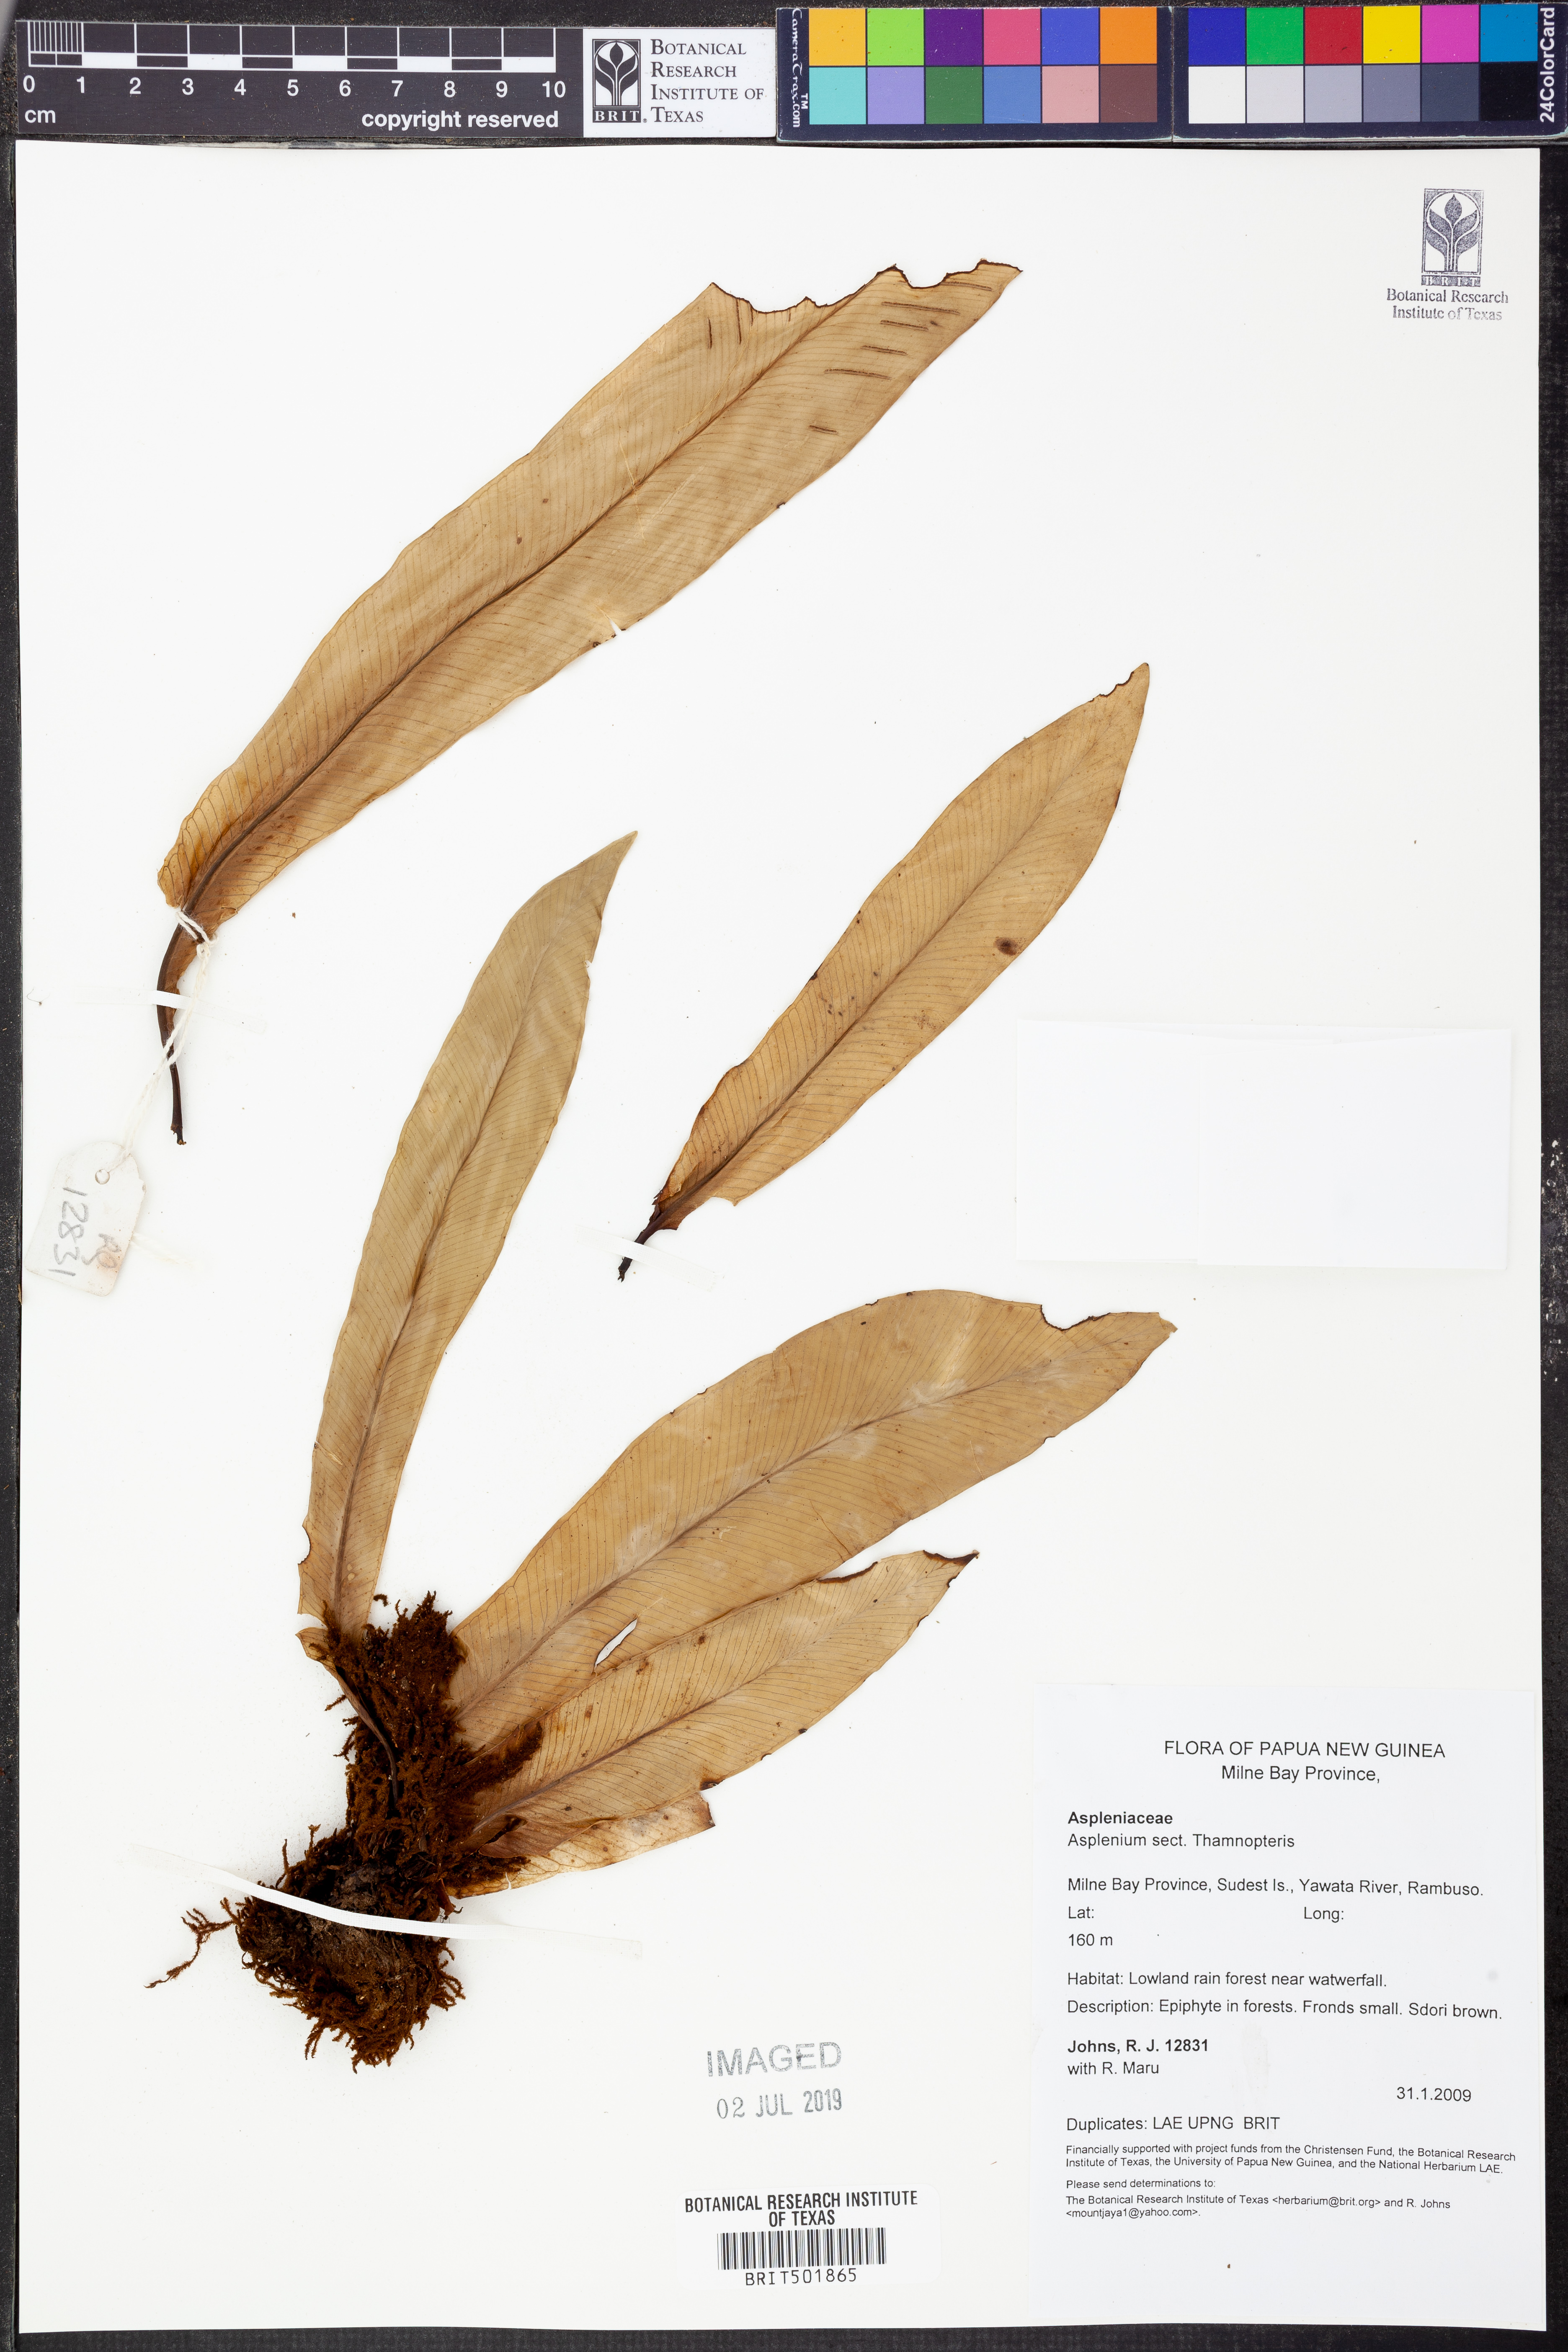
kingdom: Plantae
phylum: Tracheophyta
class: Polypodiopsida
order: Polypodiales
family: Aspleniaceae
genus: Asplenium
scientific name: Asplenium
